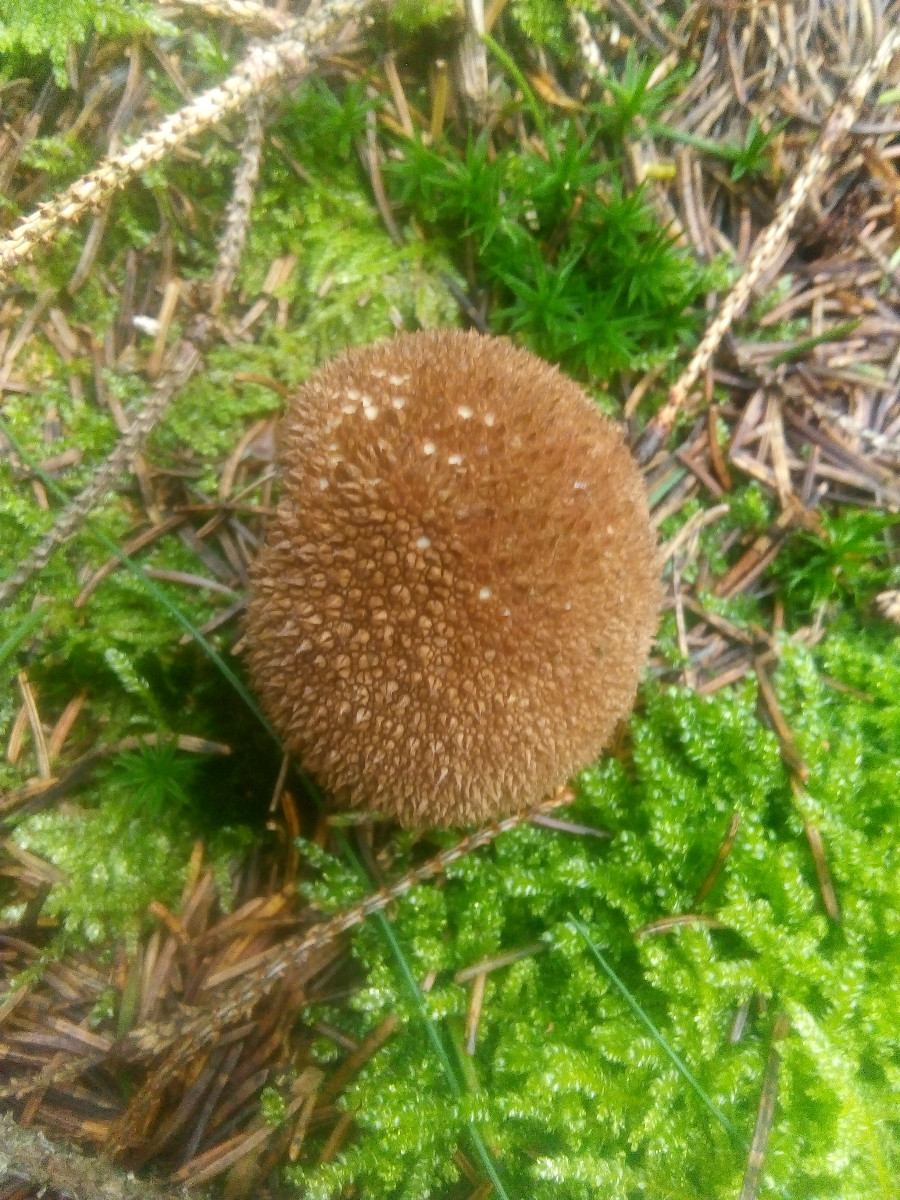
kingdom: Fungi
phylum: Basidiomycota
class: Agaricomycetes
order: Agaricales
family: Lycoperdaceae
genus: Lycoperdon
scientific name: Lycoperdon nigrescens
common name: sortagtig støvbold
